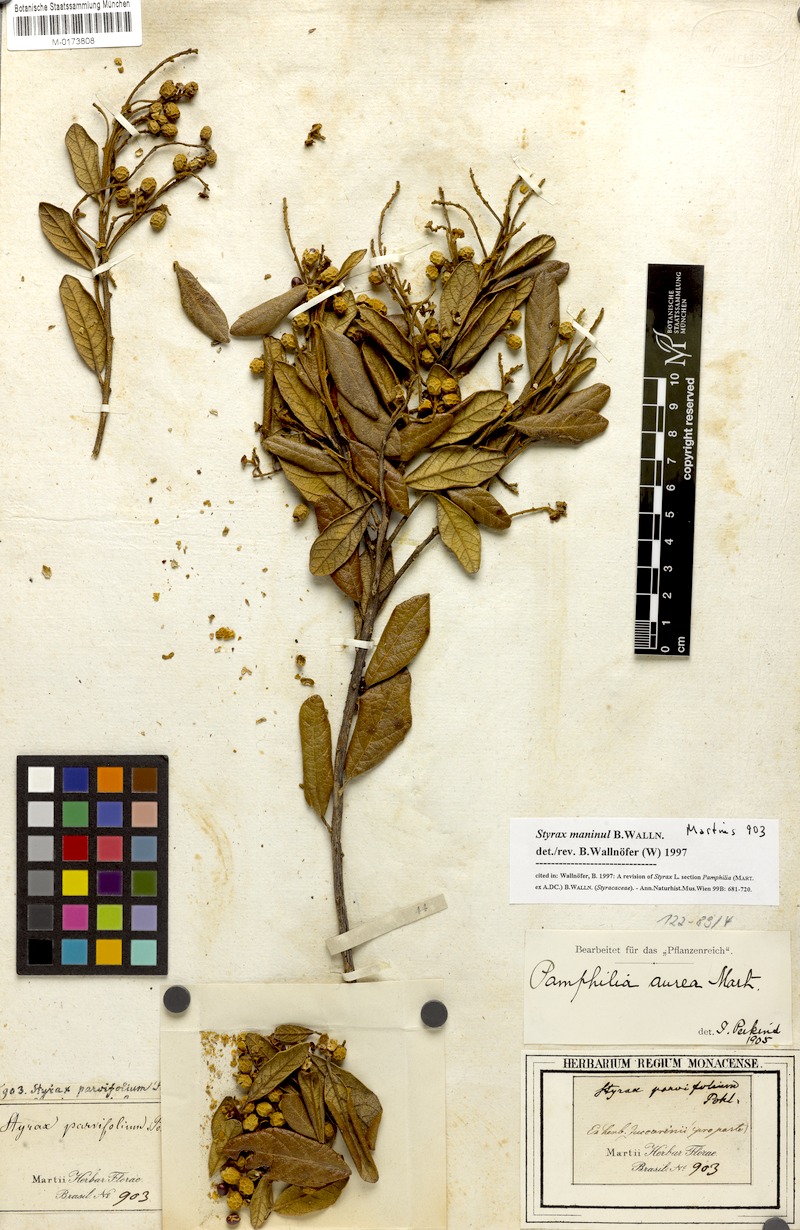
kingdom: Plantae
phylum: Tracheophyta
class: Magnoliopsida
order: Ericales
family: Styracaceae
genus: Styrax
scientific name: Styrax maninul
